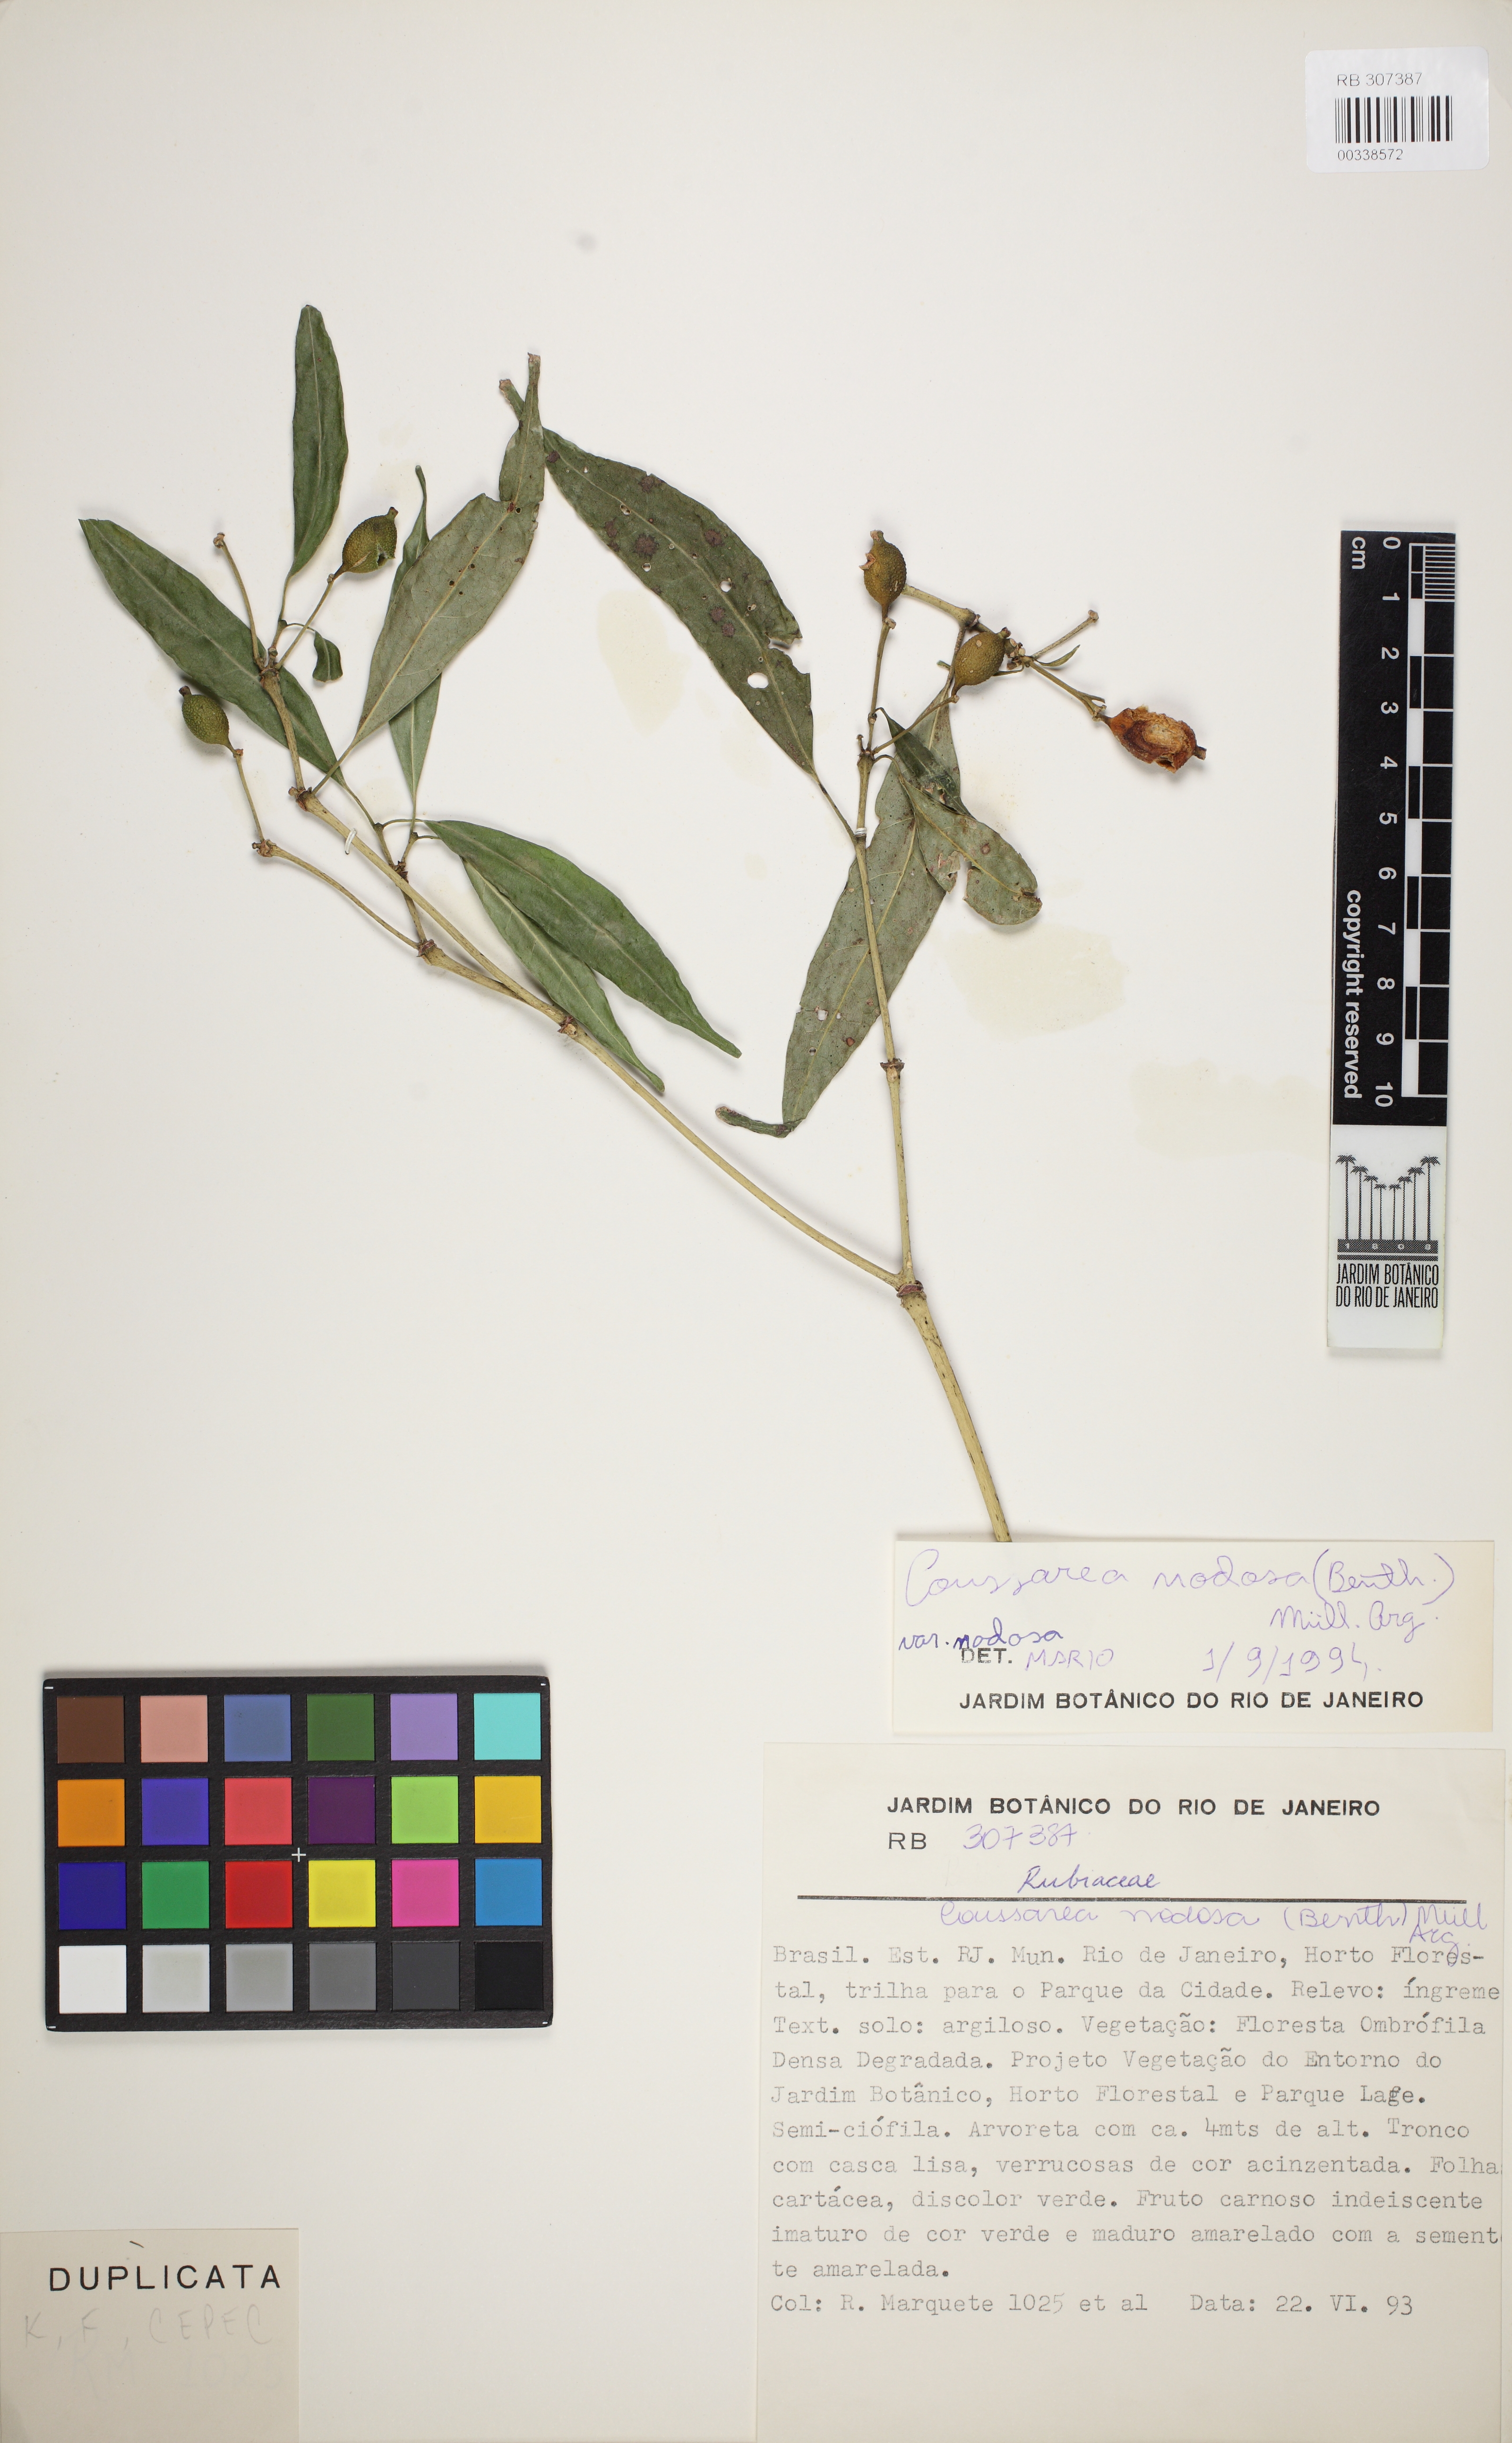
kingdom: Plantae
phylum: Tracheophyta
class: Magnoliopsida
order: Gentianales
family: Rubiaceae
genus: Coussarea
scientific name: Coussarea nodosa
